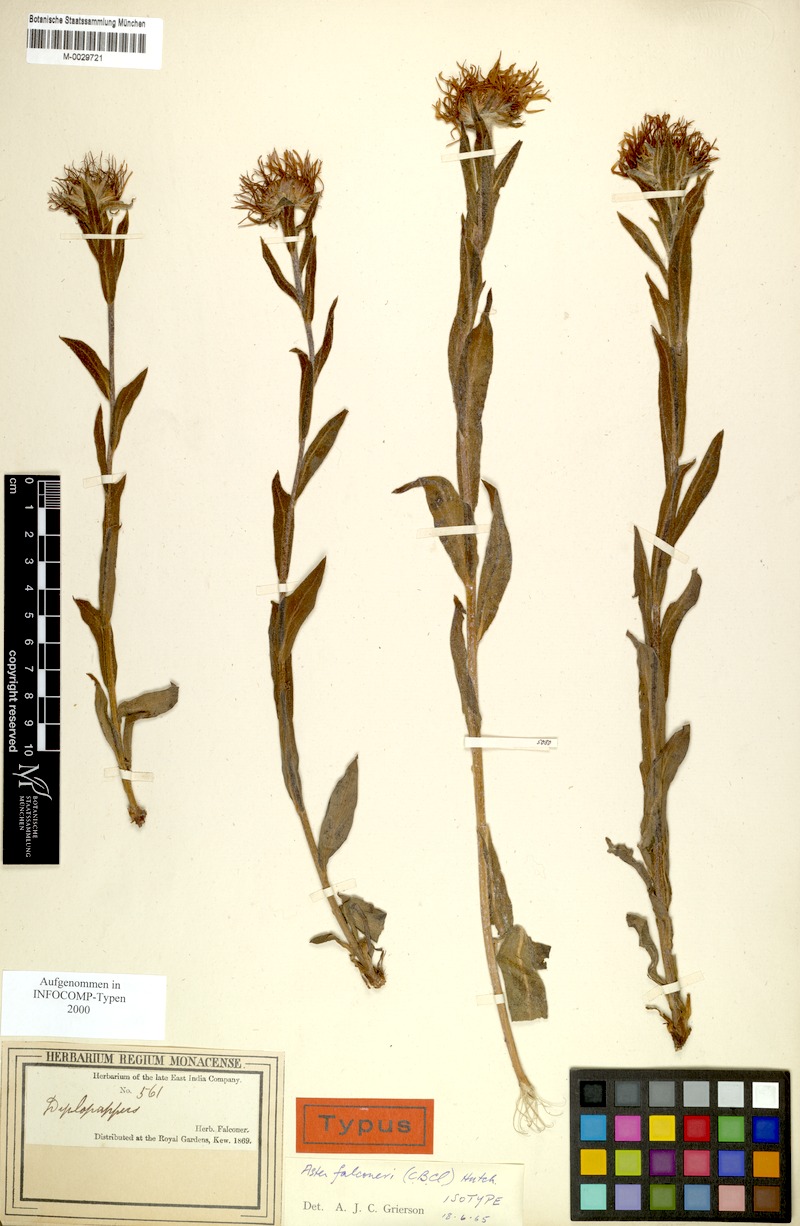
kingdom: Plantae
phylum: Tracheophyta
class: Magnoliopsida
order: Asterales
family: Asteraceae
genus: Tibetiodes
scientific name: Tibetiodes falconeri
